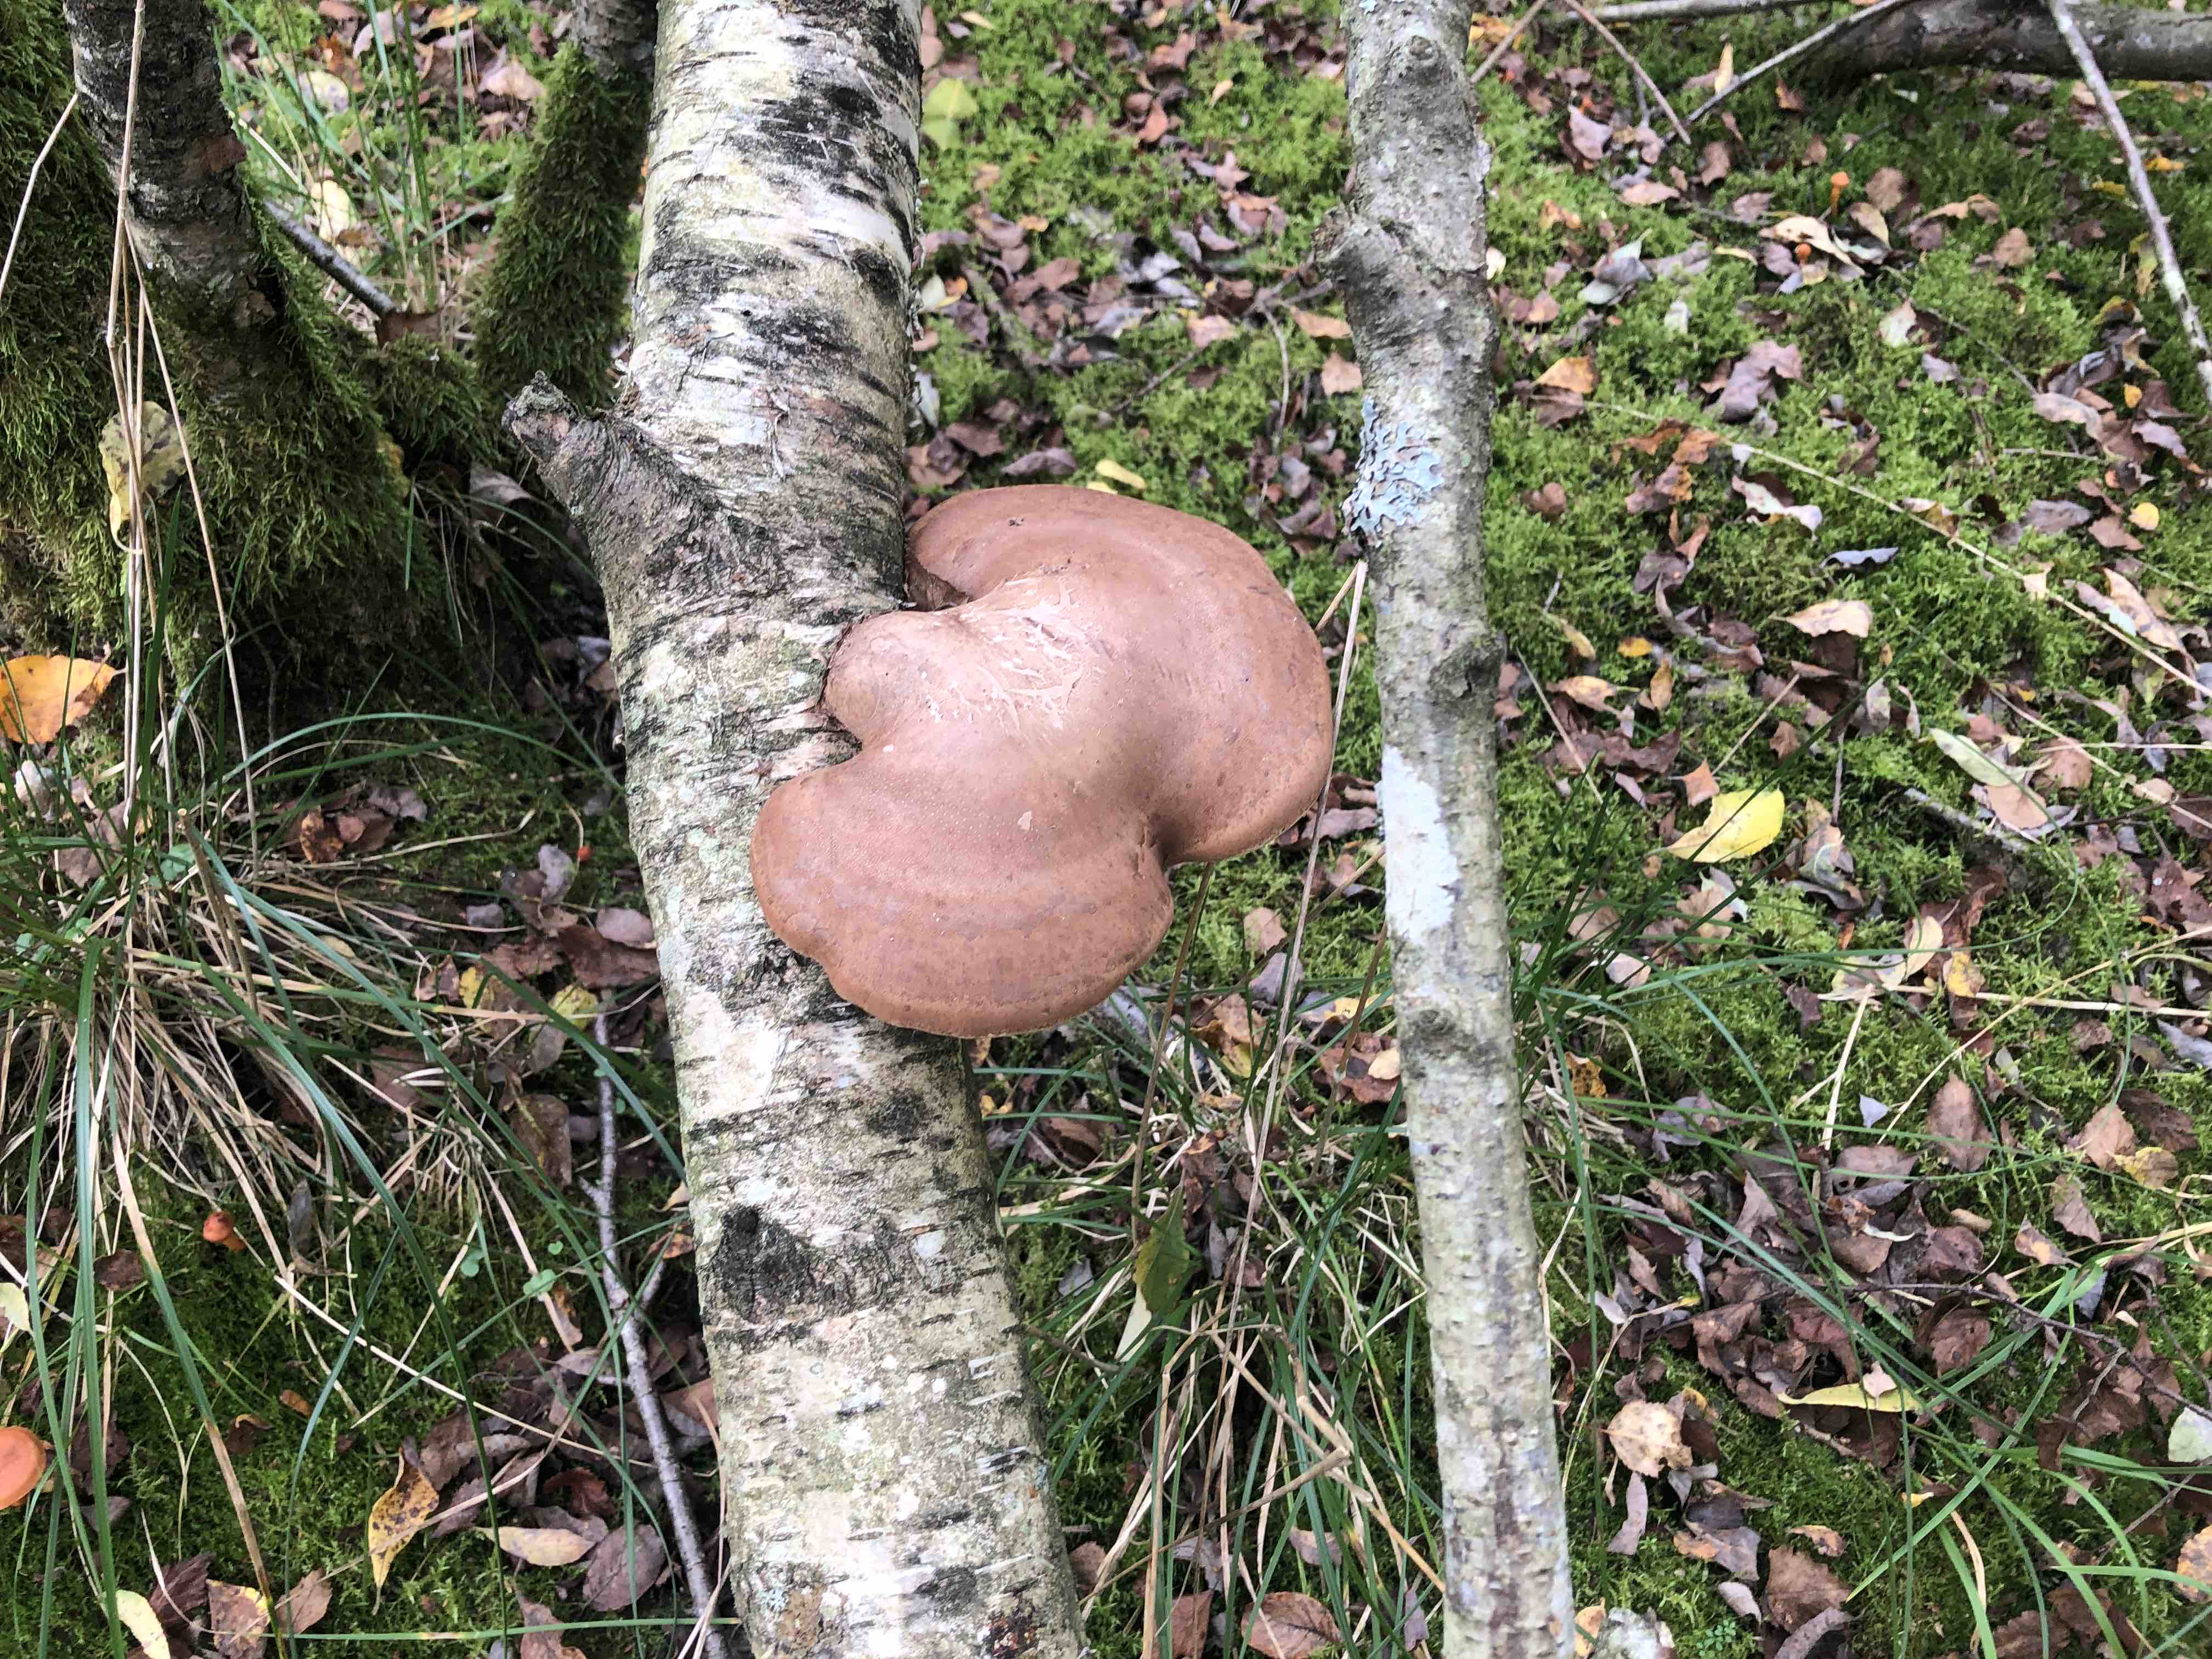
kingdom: Fungi
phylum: Basidiomycota
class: Agaricomycetes
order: Polyporales
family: Fomitopsidaceae
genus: Fomitopsis
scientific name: Fomitopsis betulina
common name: birkeporesvamp
